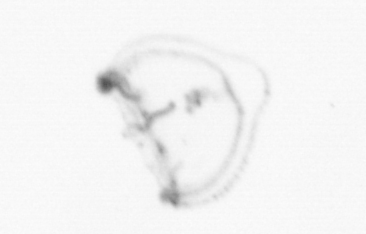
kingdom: Animalia
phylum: Cnidaria
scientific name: Cnidaria
